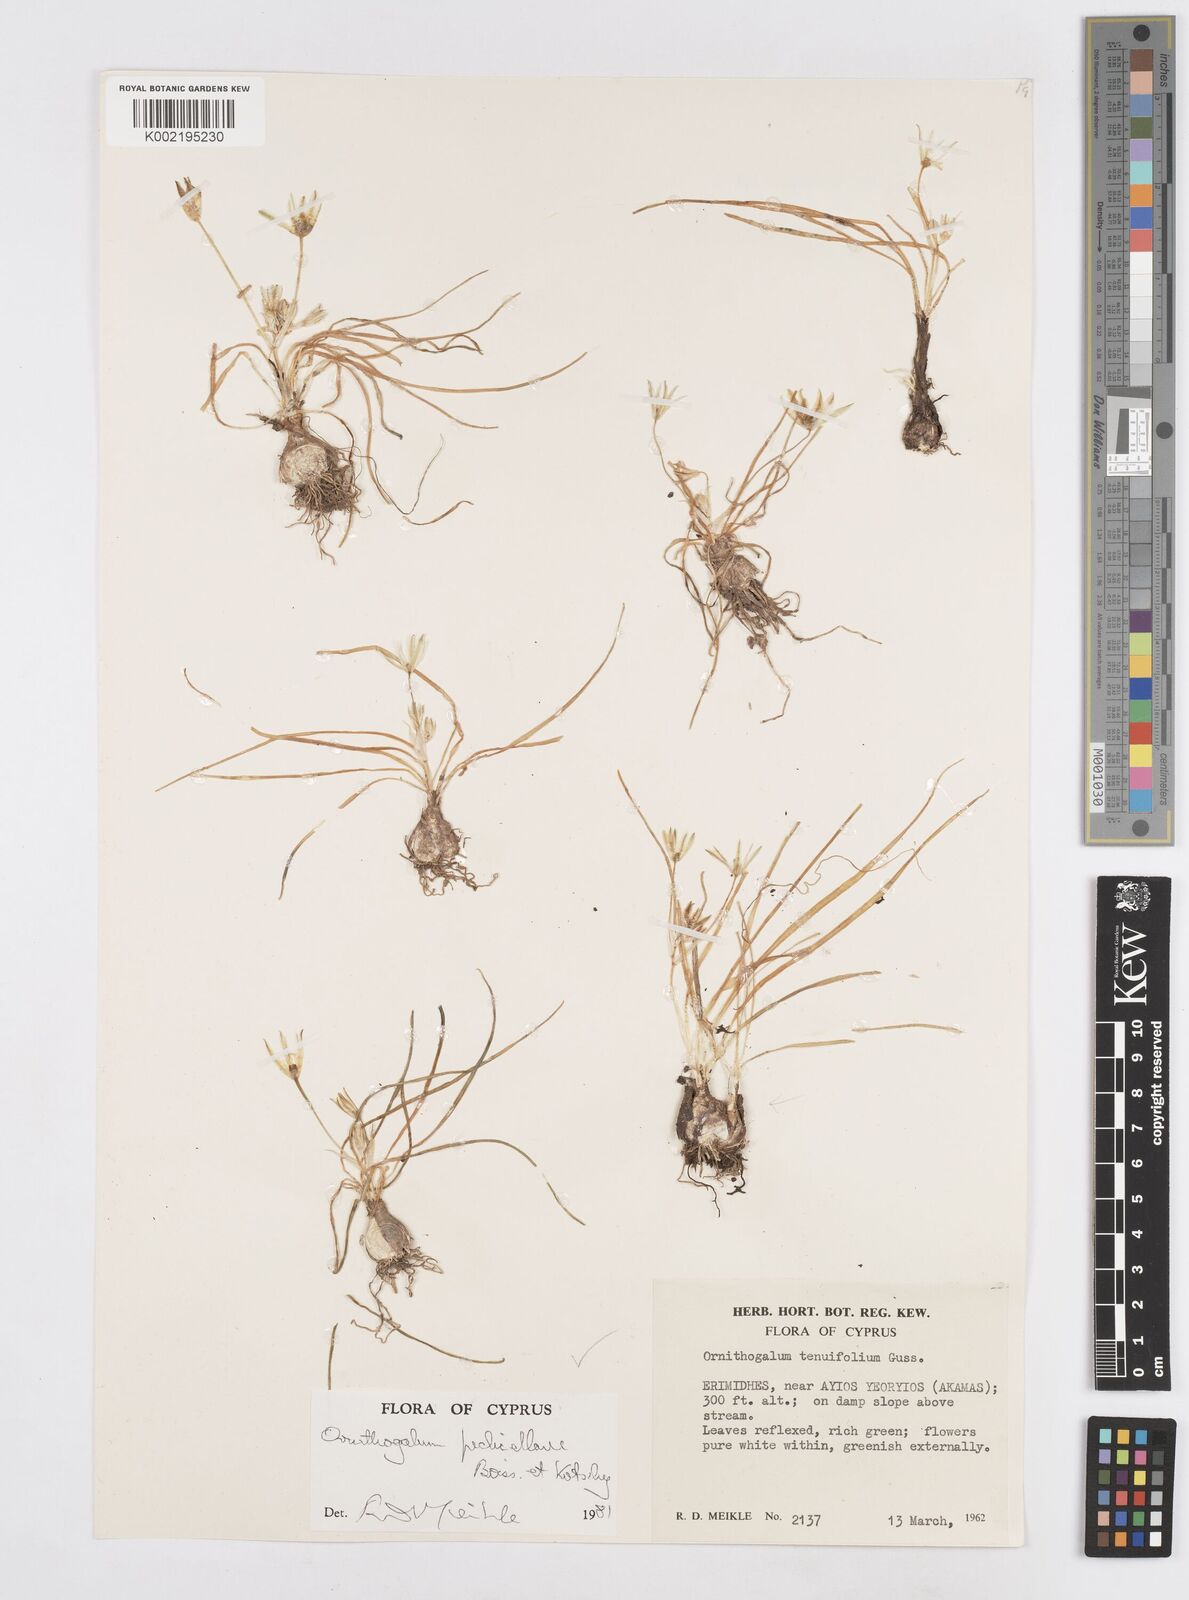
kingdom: Plantae
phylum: Tracheophyta
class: Liliopsida
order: Asparagales
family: Asparagaceae
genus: Ornithogalum
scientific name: Ornithogalum pedicellare
